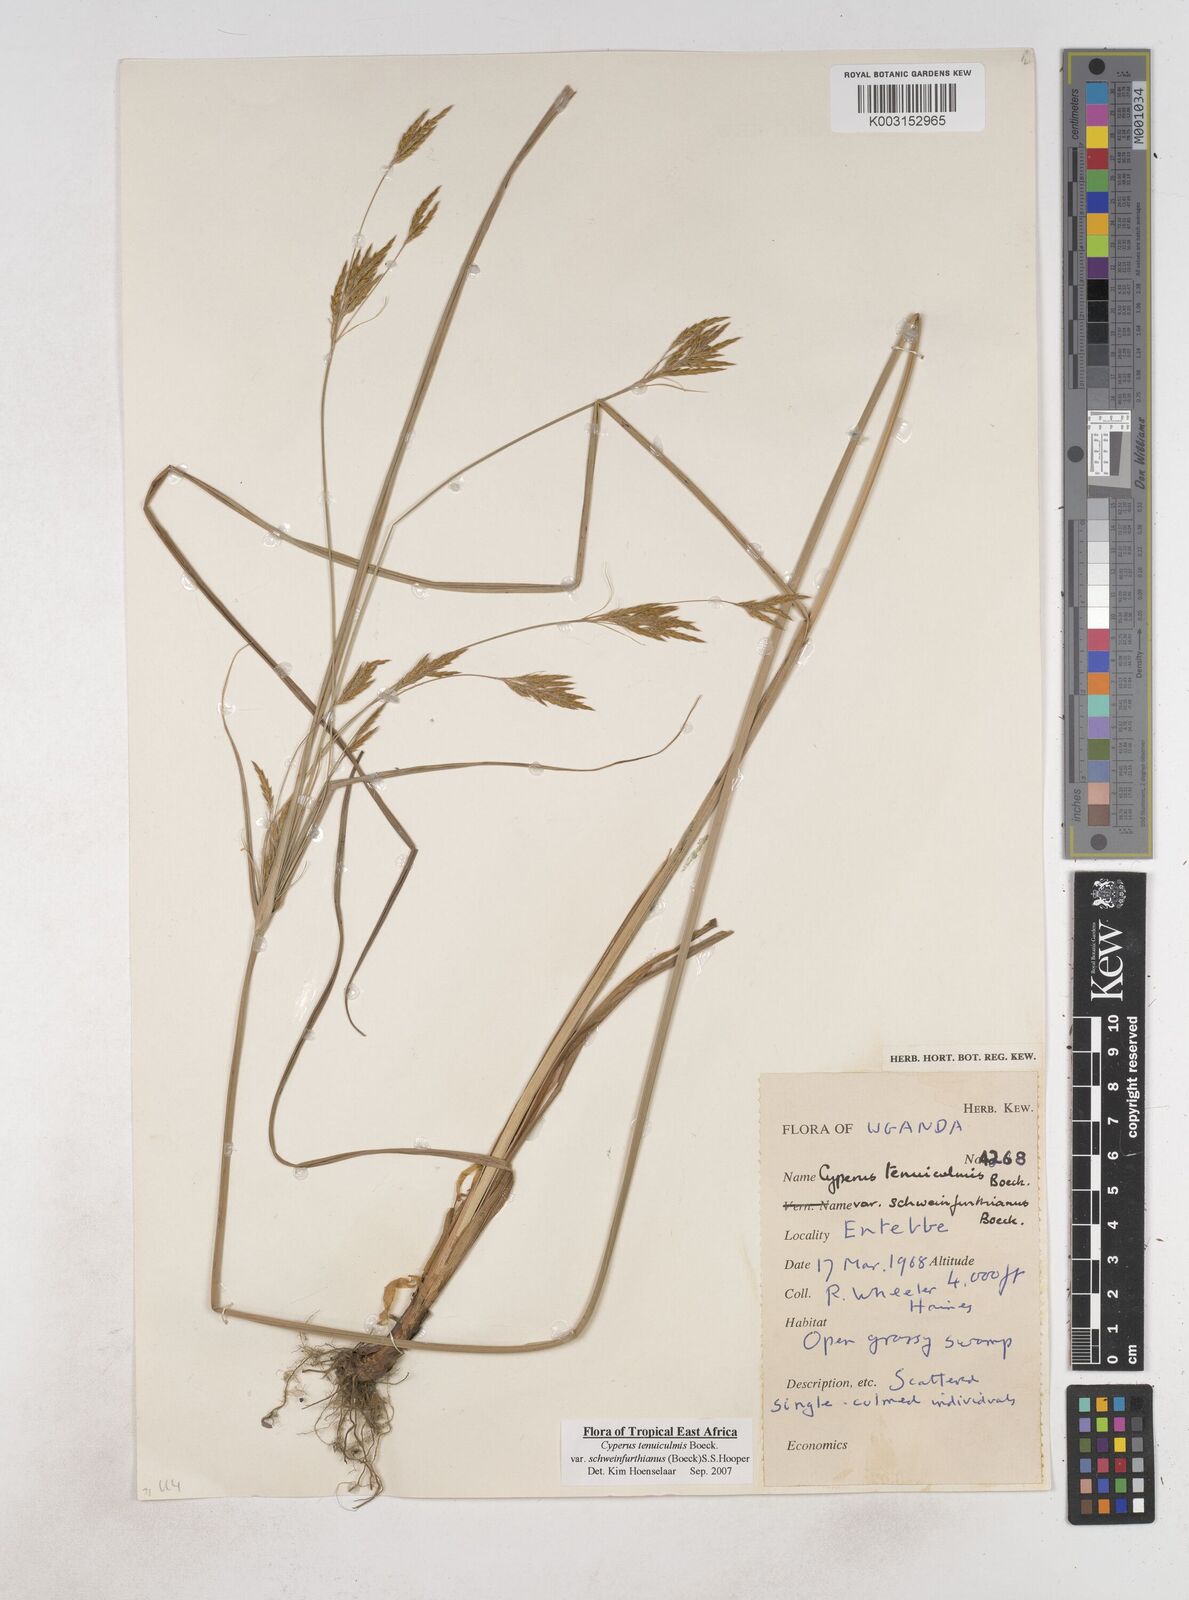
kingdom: Plantae
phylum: Tracheophyta
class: Liliopsida
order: Poales
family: Cyperaceae
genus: Cyperus
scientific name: Cyperus tenuiculmis
